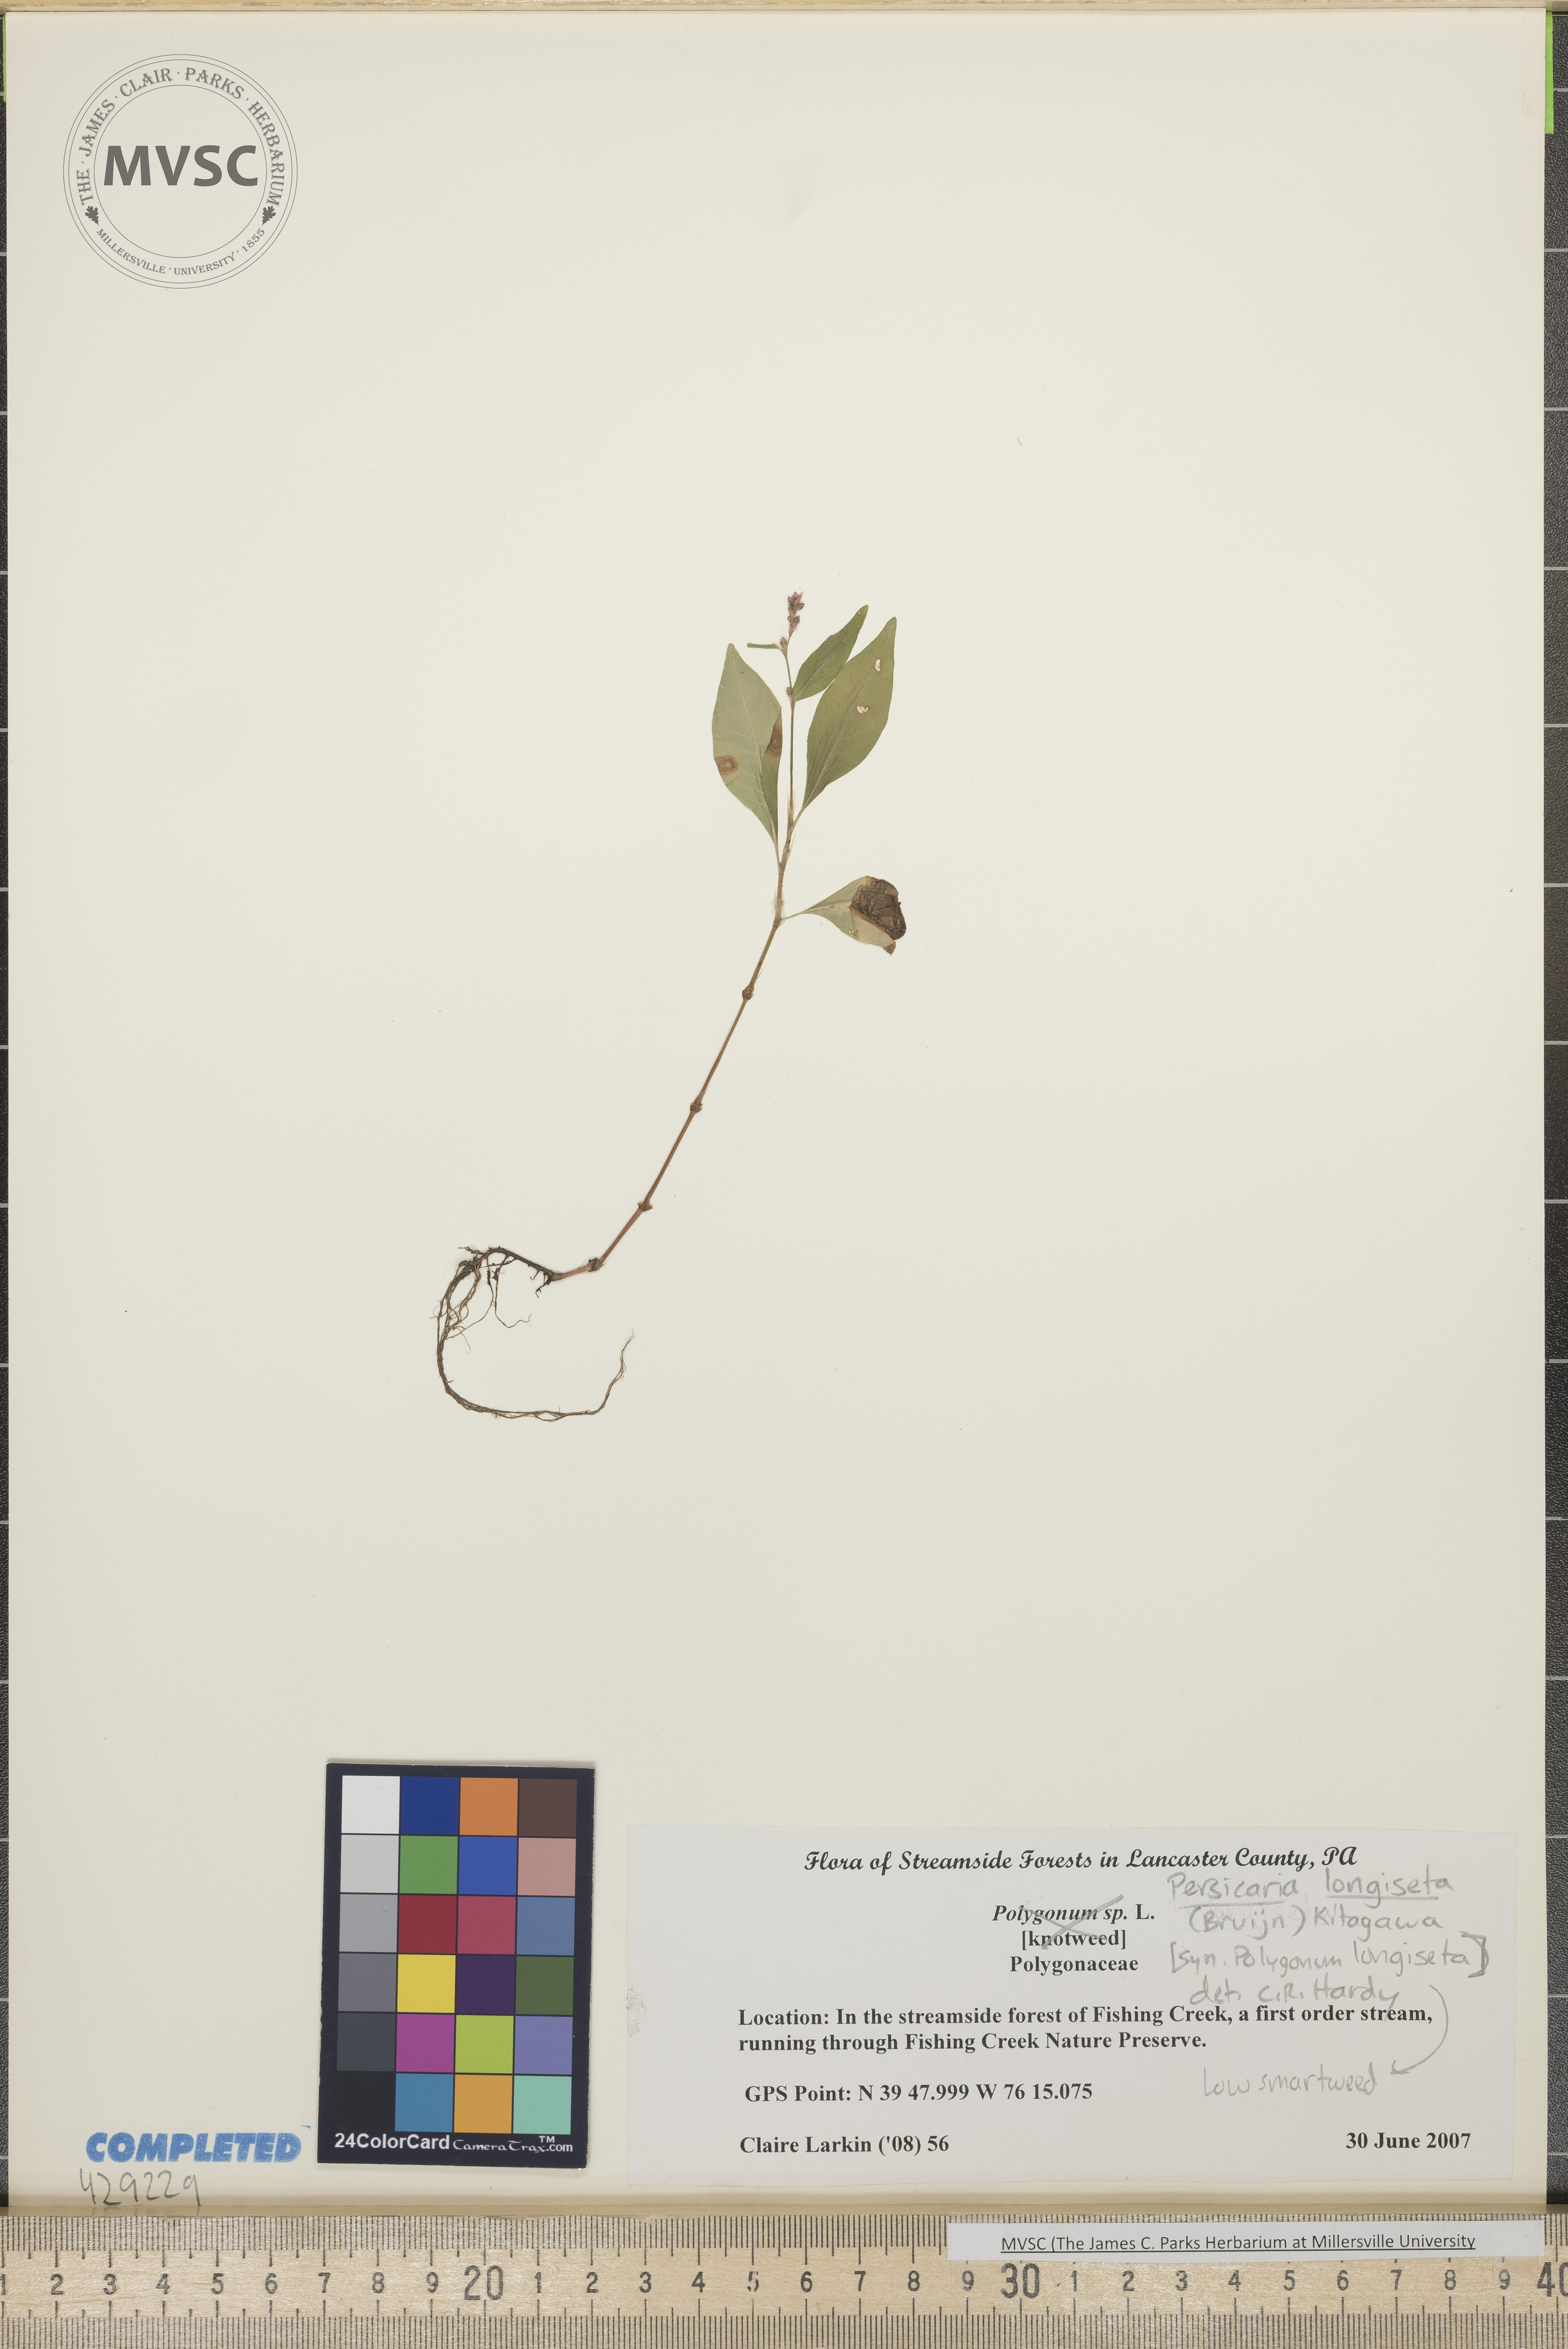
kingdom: Plantae
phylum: Tracheophyta
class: Magnoliopsida
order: Caryophyllales
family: Polygonaceae
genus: Persicaria
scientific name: Persicaria longiseta
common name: Bristly lady's-thumb
